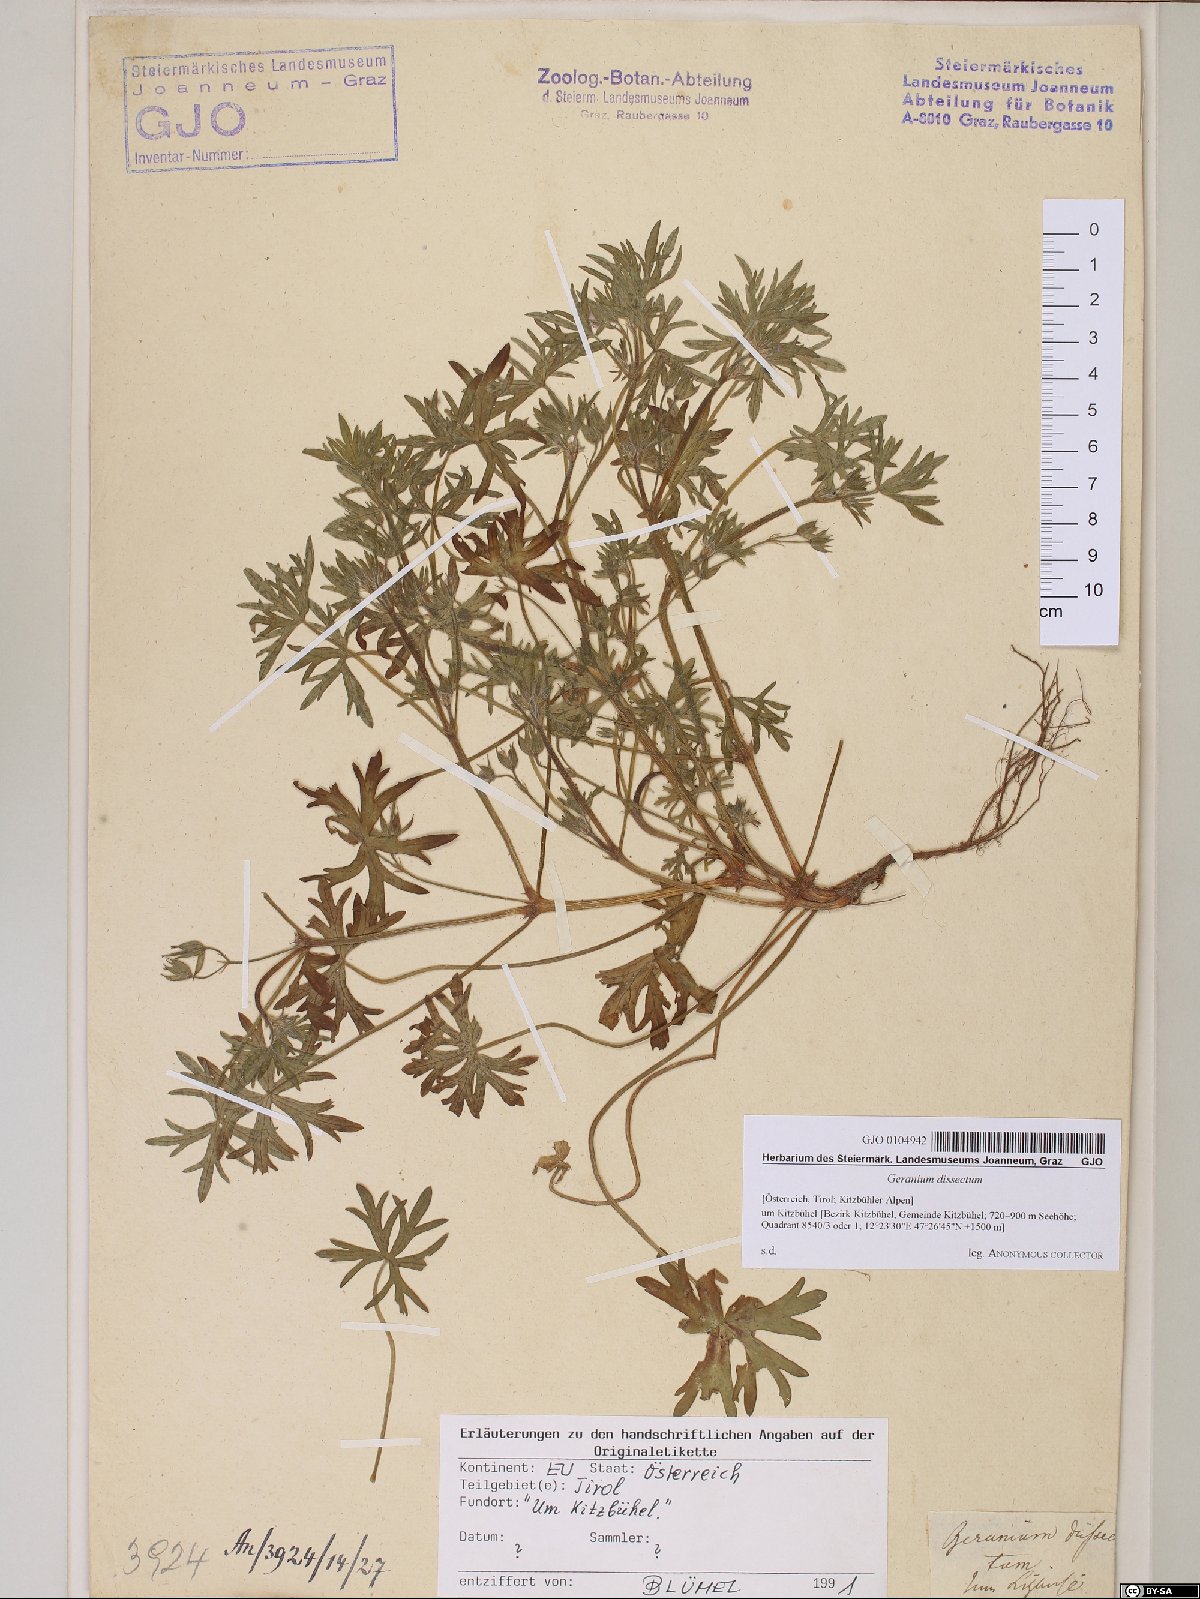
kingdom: Plantae
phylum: Tracheophyta
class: Magnoliopsida
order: Geraniales
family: Geraniaceae
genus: Geranium
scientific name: Geranium dissectum
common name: Cut-leaved crane's-bill
